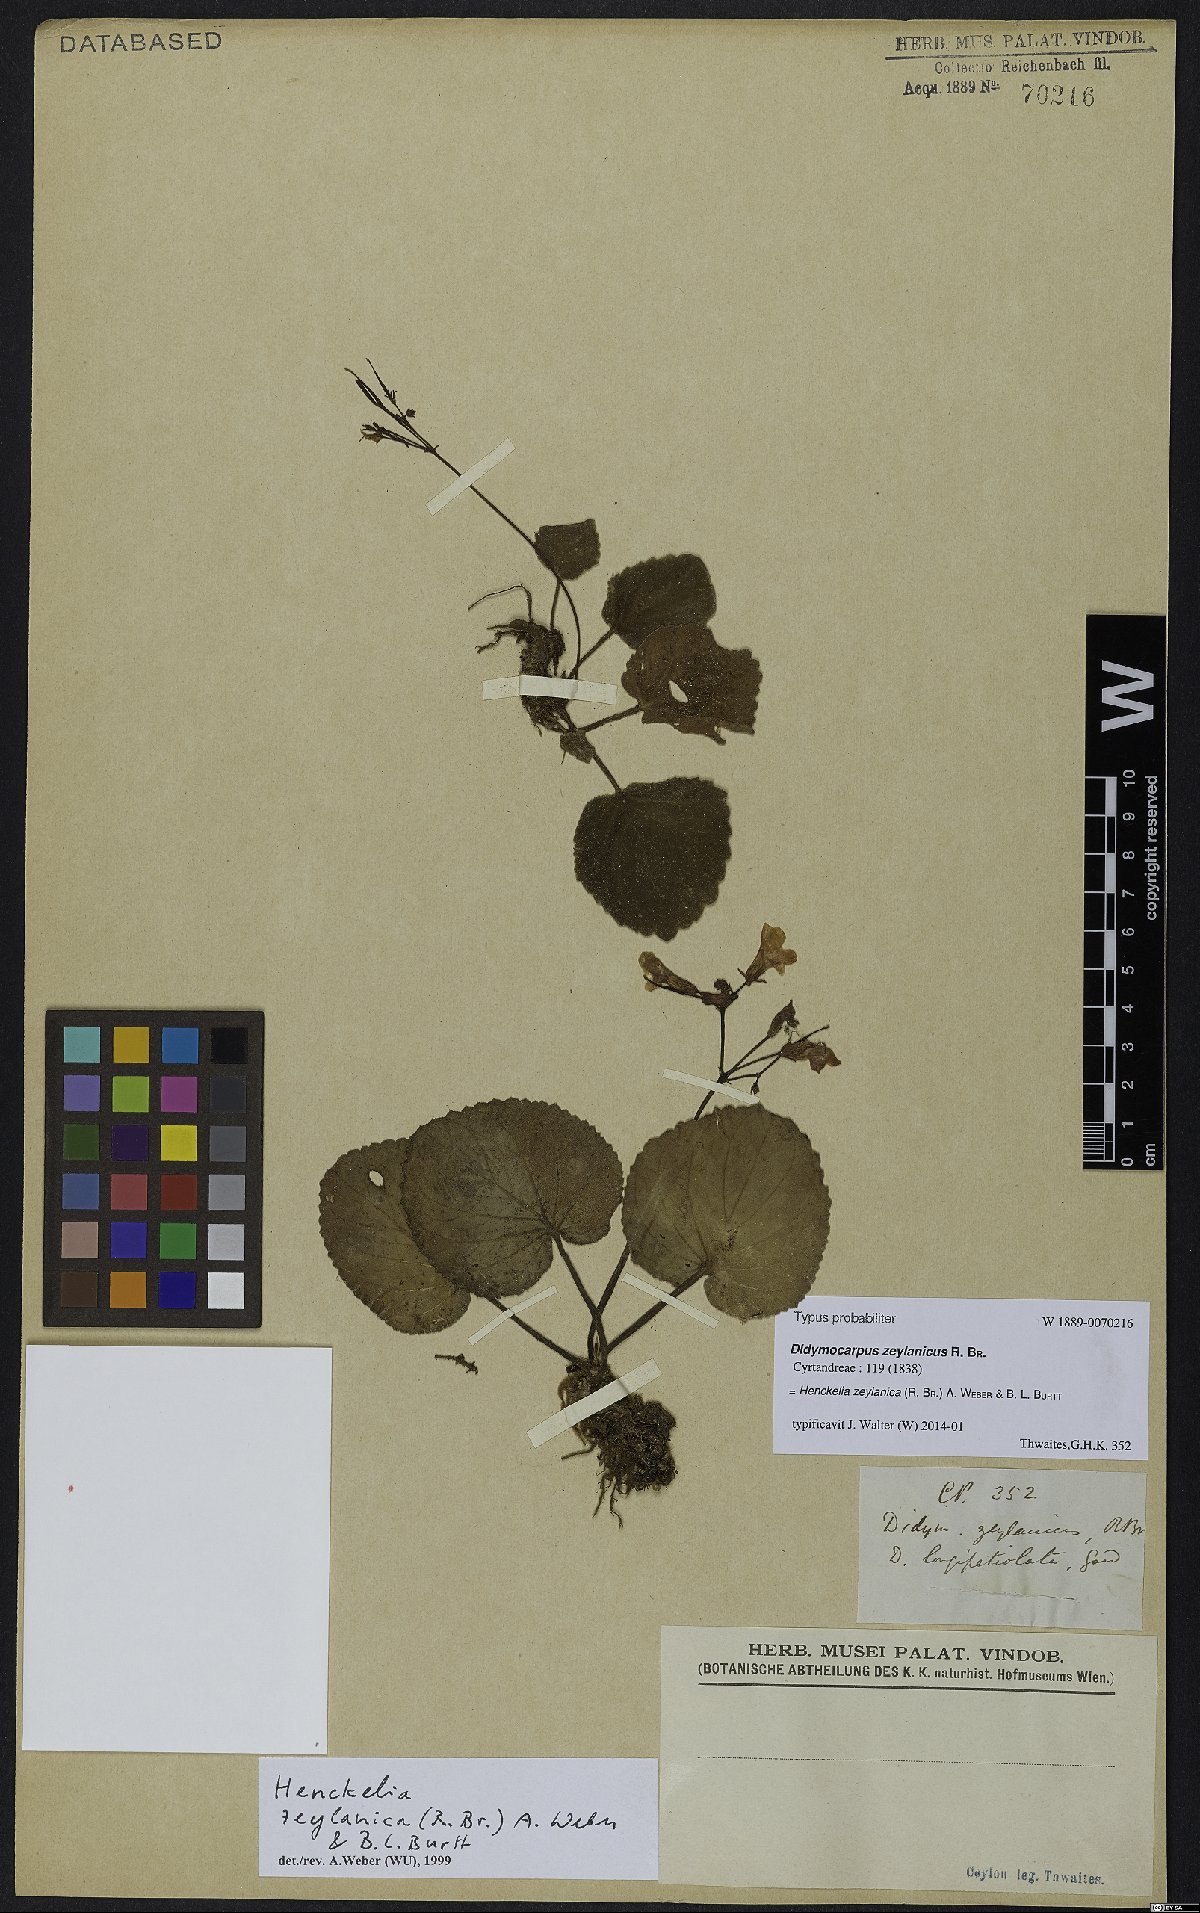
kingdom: Plantae
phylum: Tracheophyta
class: Magnoliopsida
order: Lamiales
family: Gesneriaceae
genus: Henckelia
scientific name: Henckelia zeylanica
